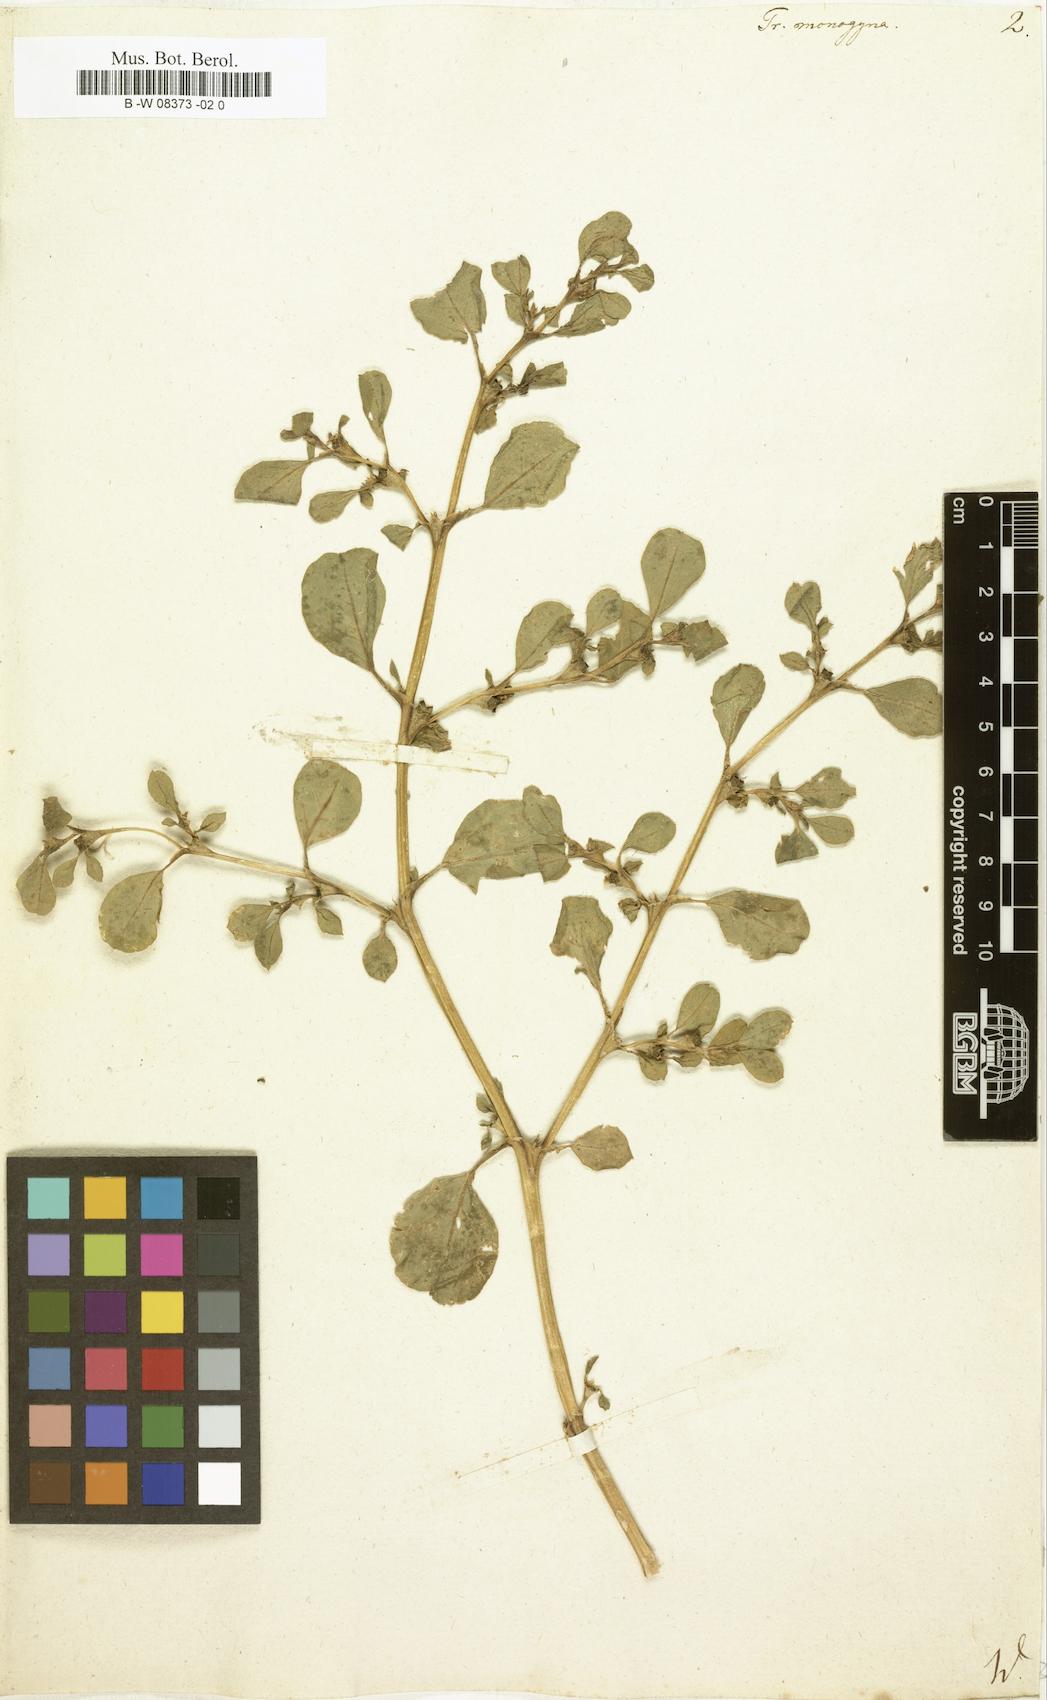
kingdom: Plantae
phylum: Tracheophyta
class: Magnoliopsida
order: Caryophyllales
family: Aizoaceae
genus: Trianthema
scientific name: Trianthema portulacastrum
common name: Desert horsepurslane
